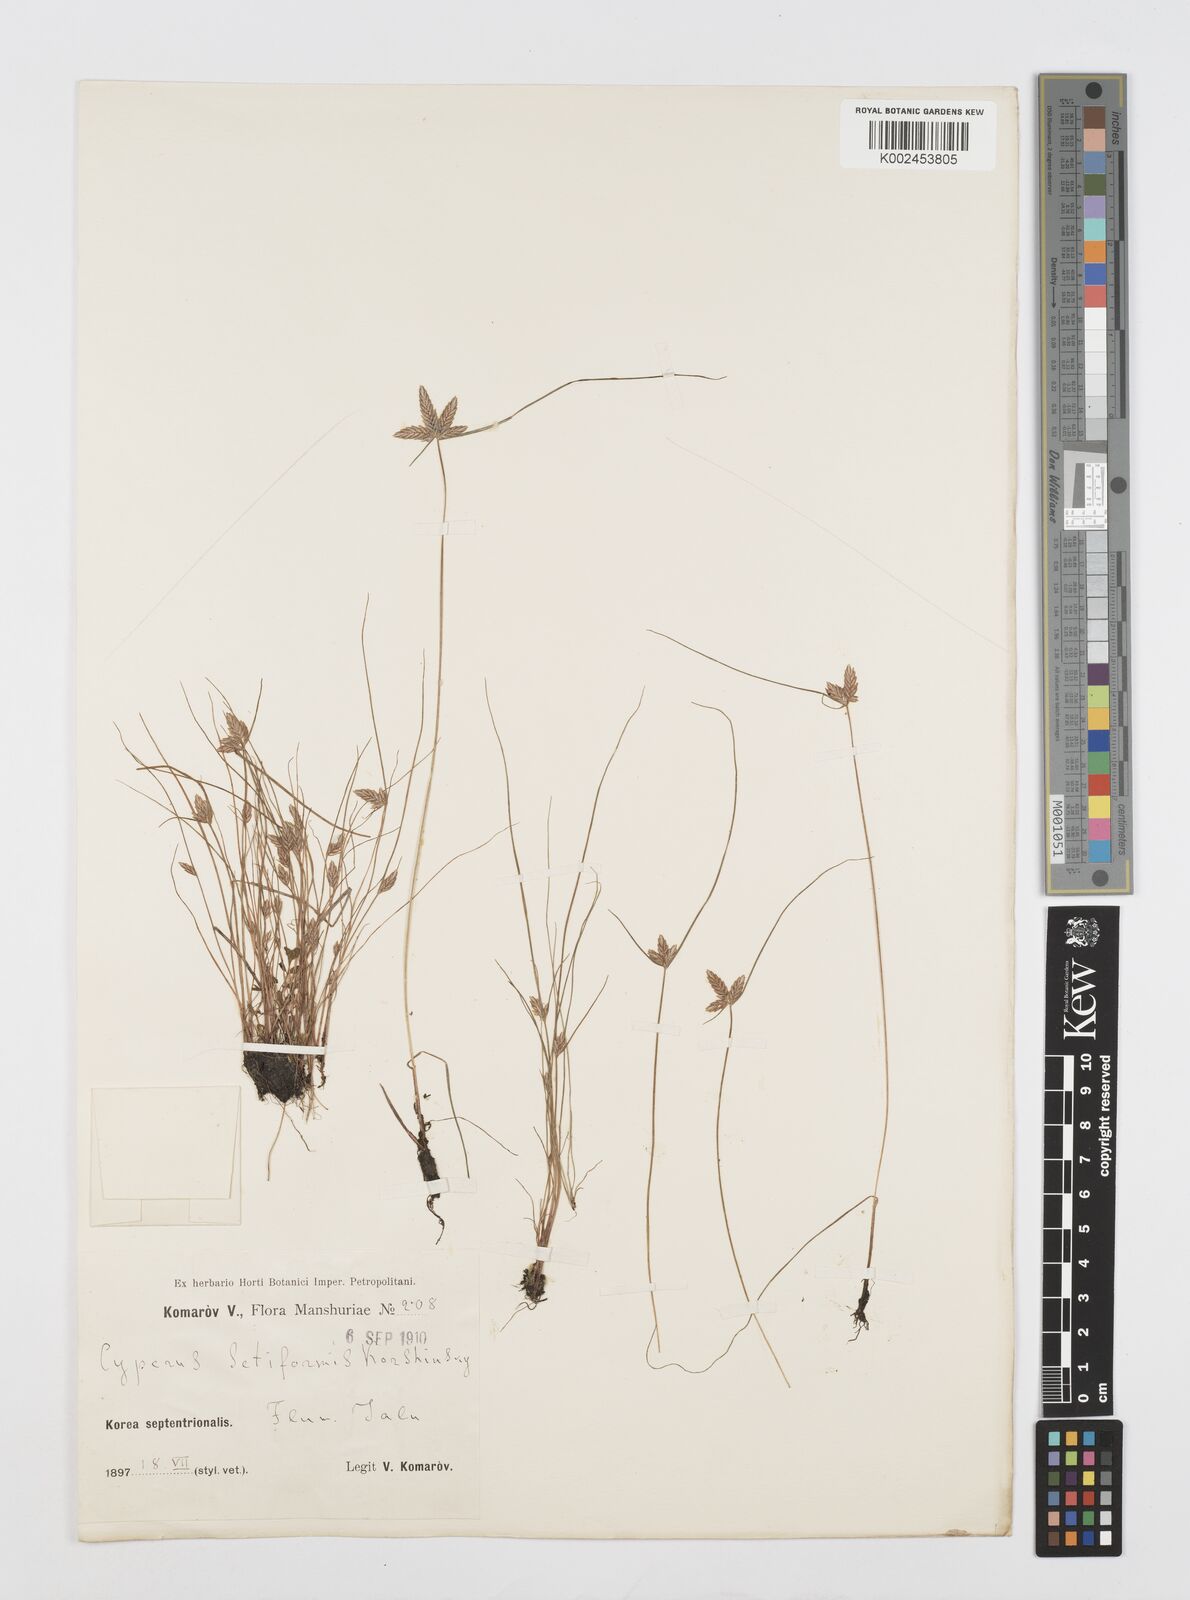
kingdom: Plantae
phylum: Tracheophyta
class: Liliopsida
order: Poales
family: Cyperaceae
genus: Cyperus
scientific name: Cyperus setiformis
